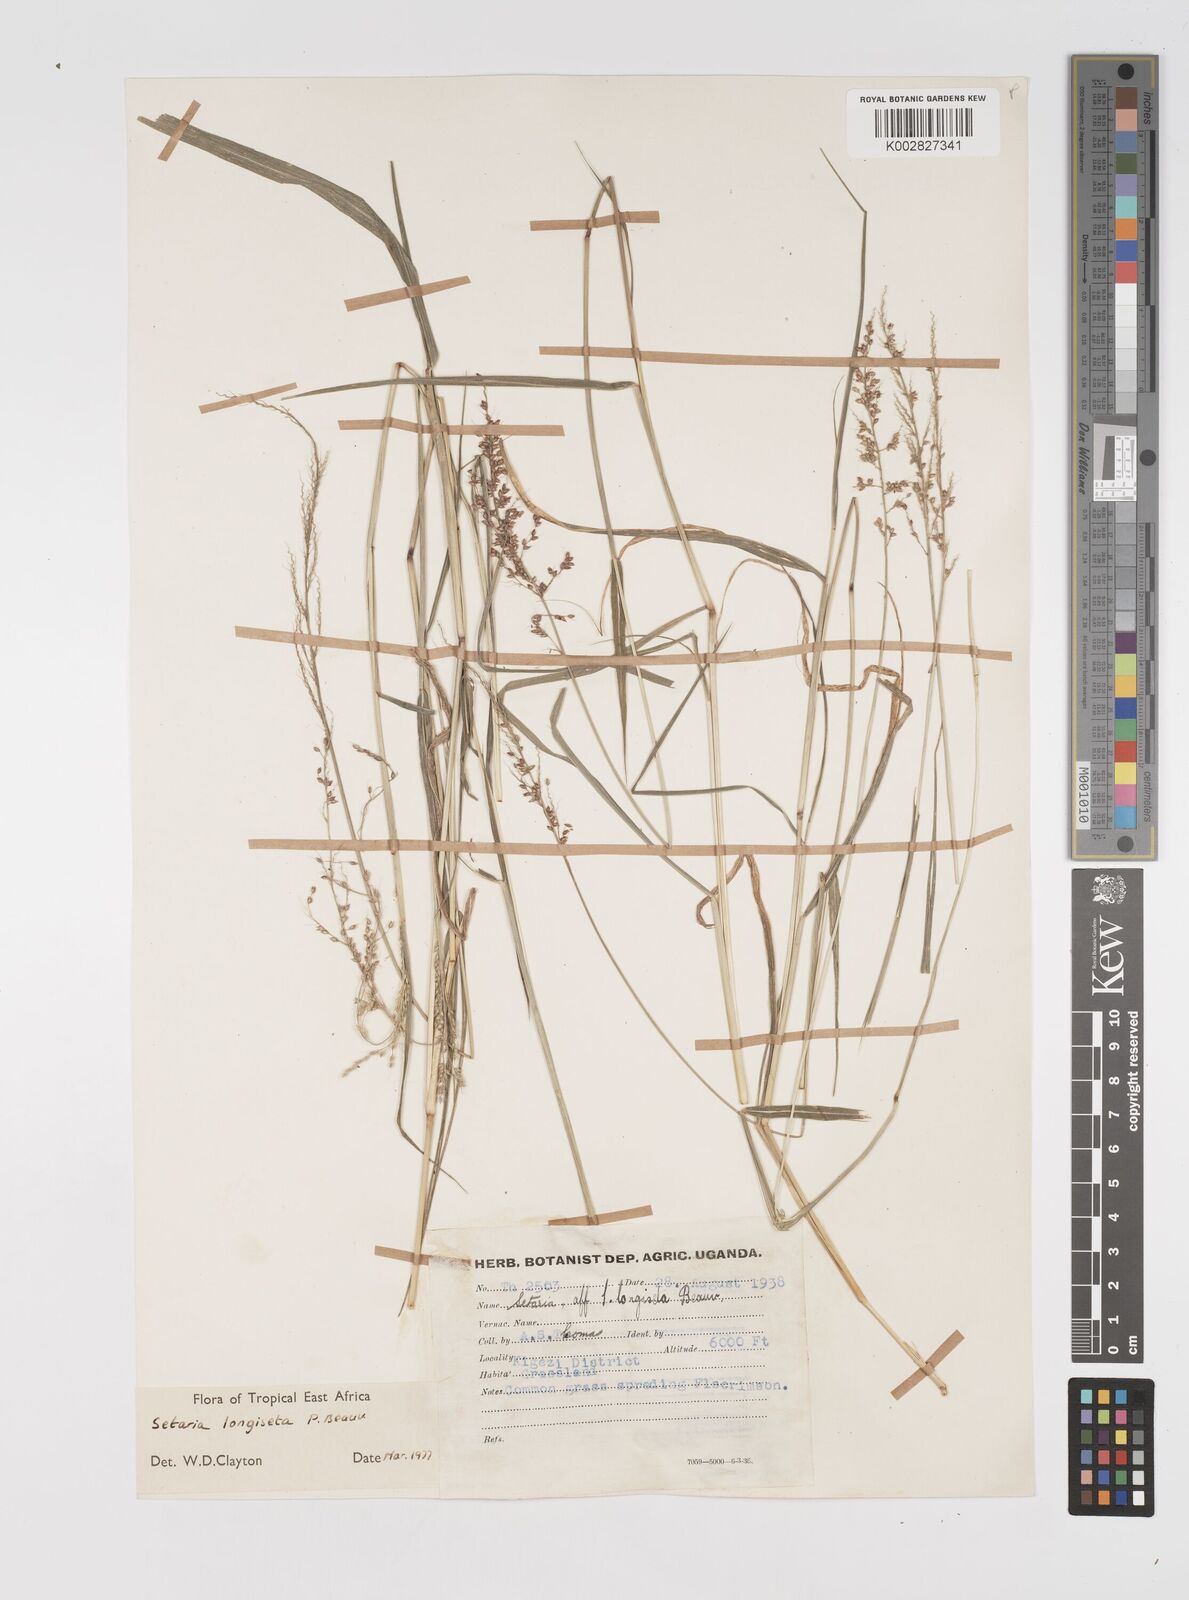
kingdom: Plantae
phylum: Tracheophyta
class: Liliopsida
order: Poales
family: Poaceae
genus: Setaria
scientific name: Setaria longiseta
